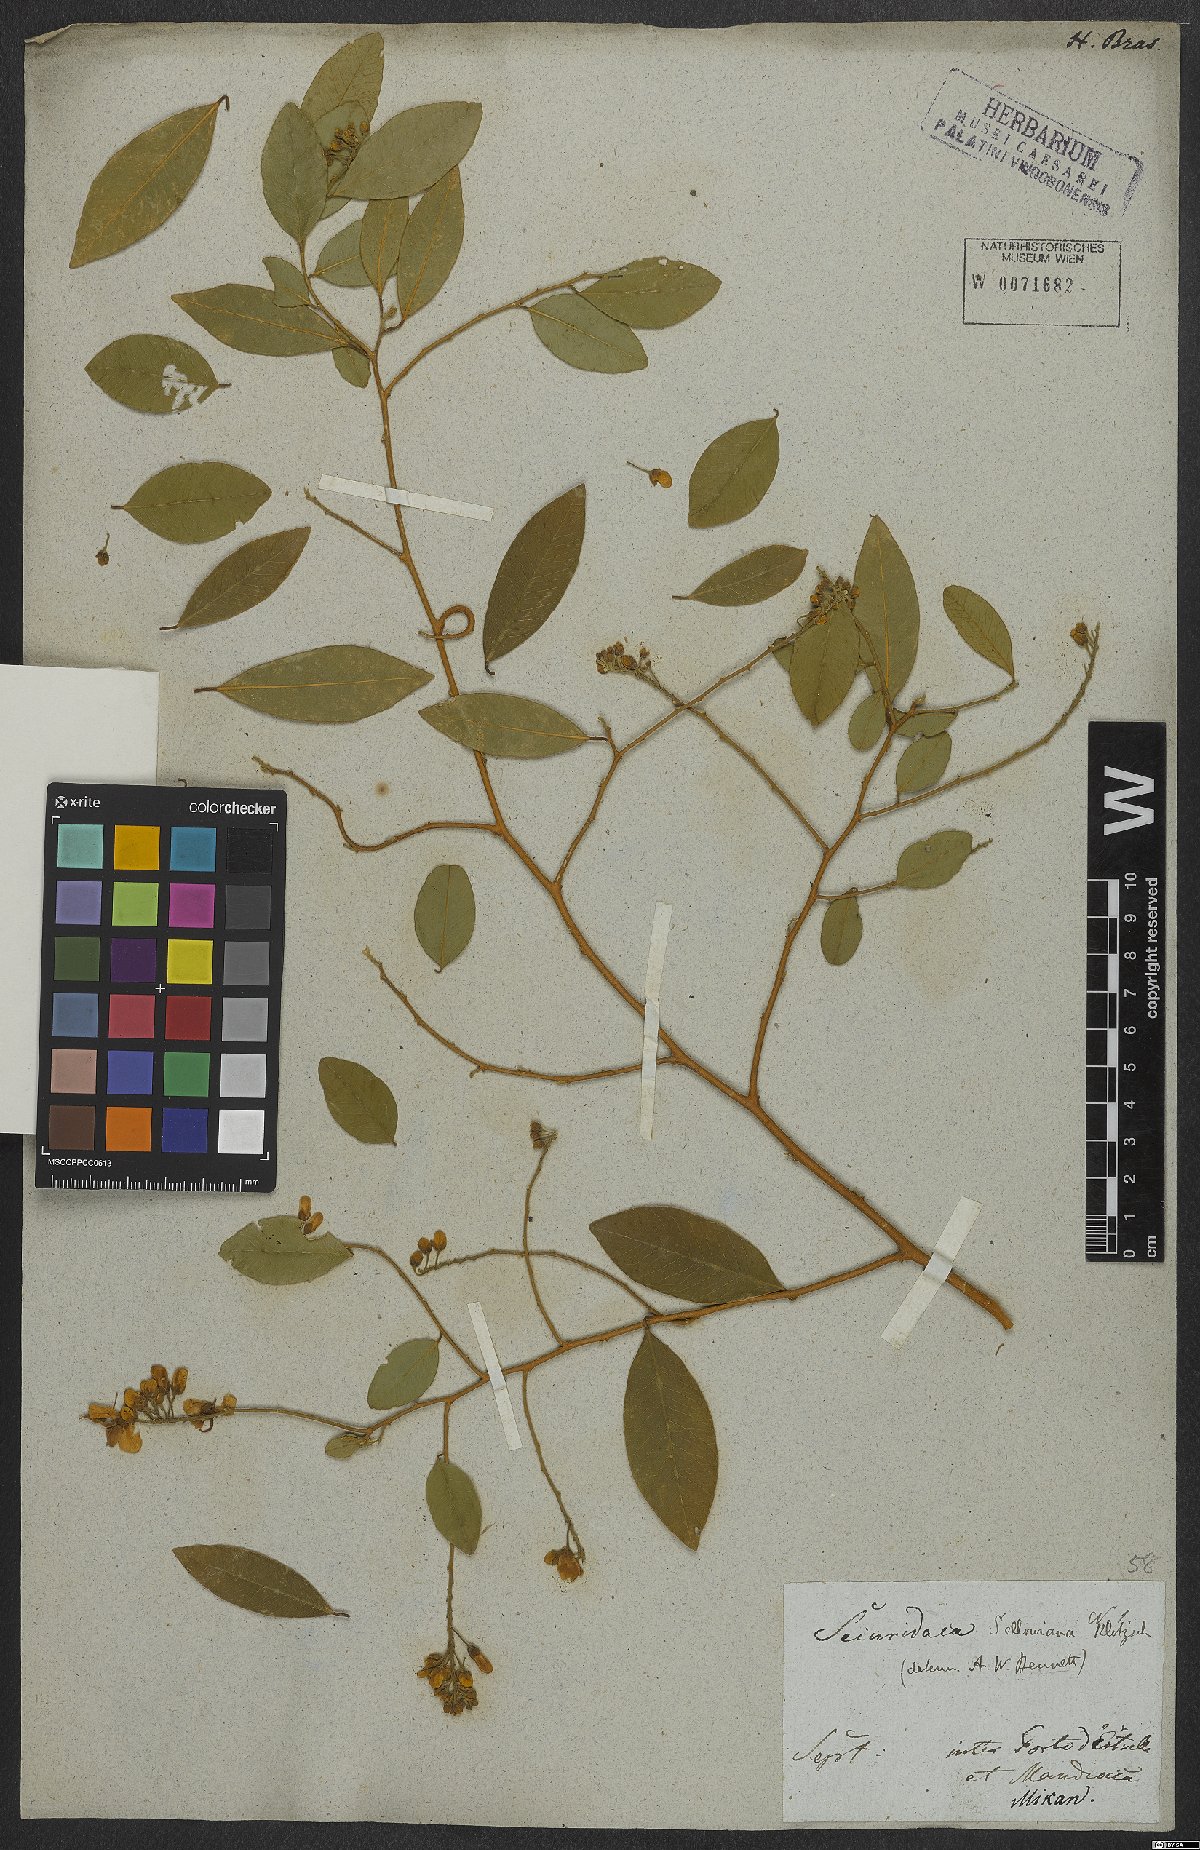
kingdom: Plantae
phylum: Tracheophyta
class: Magnoliopsida
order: Fabales
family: Polygalaceae
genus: Securidaca
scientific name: Securidaca lanceolata
